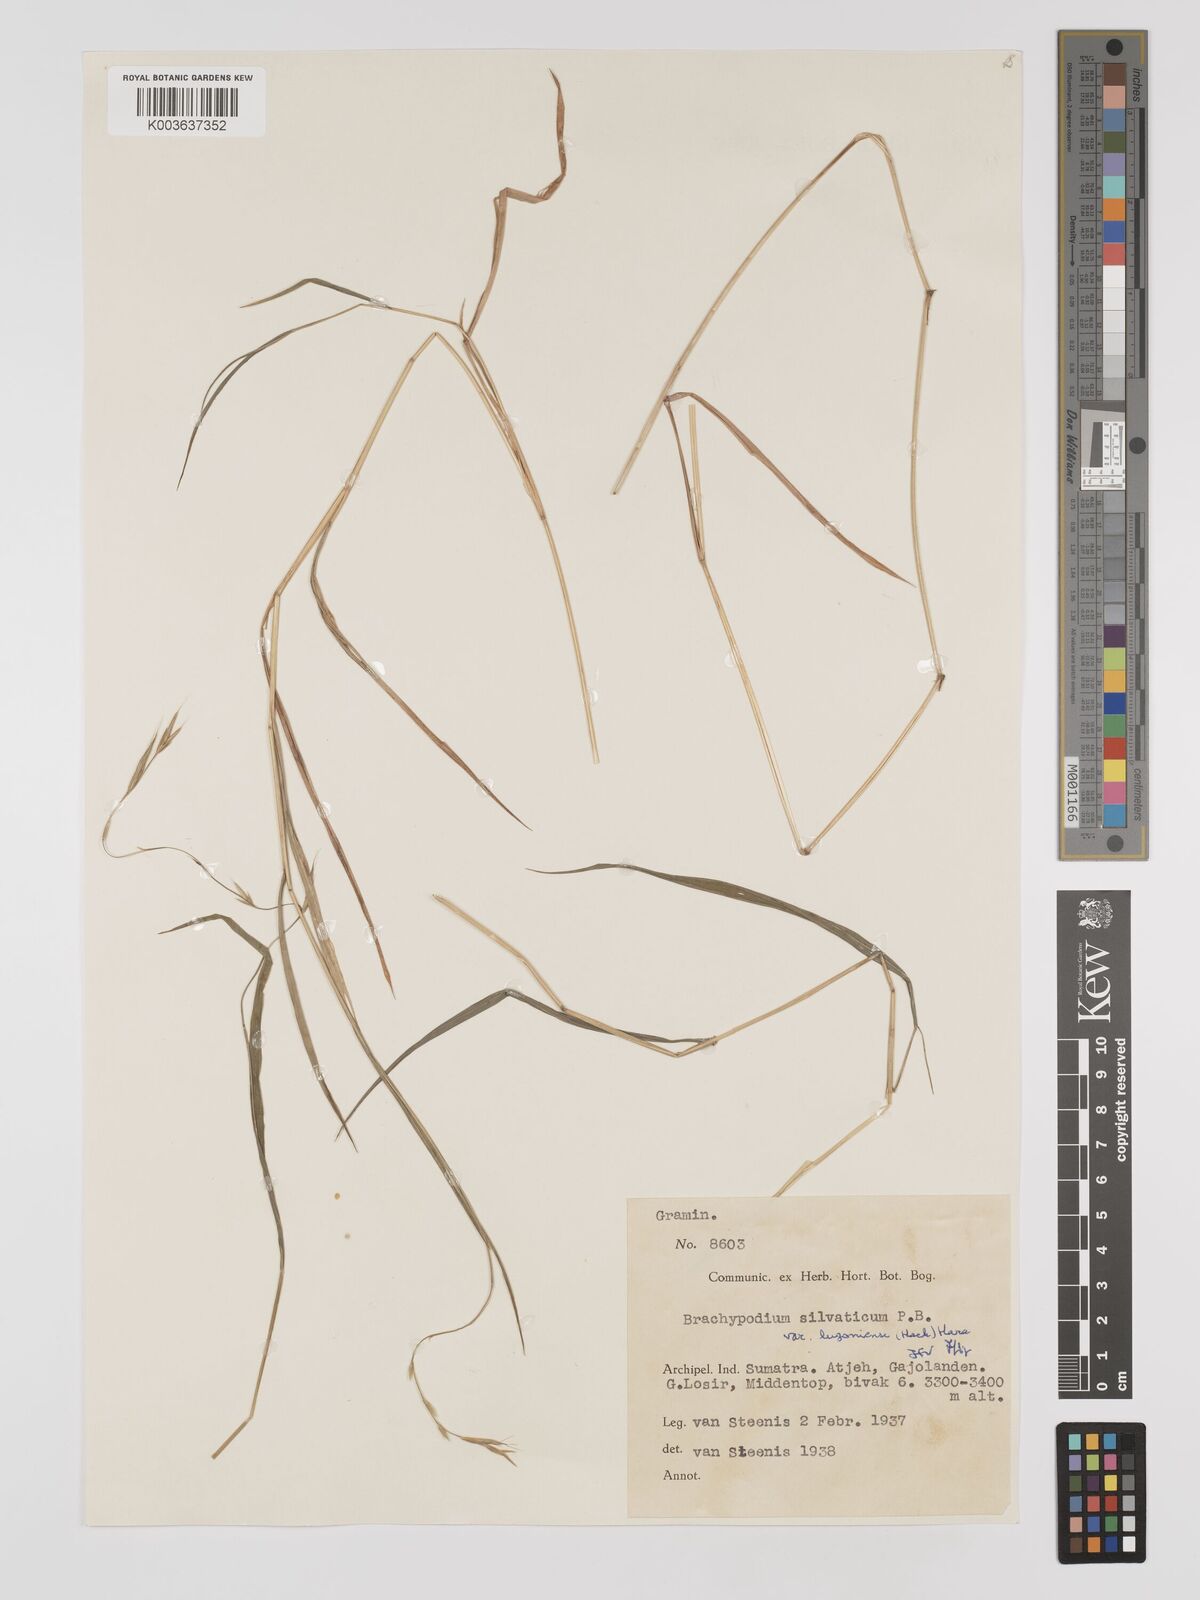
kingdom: Plantae
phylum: Tracheophyta
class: Liliopsida
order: Poales
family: Poaceae
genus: Brachypodium
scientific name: Brachypodium sylvaticum
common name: False-brome
